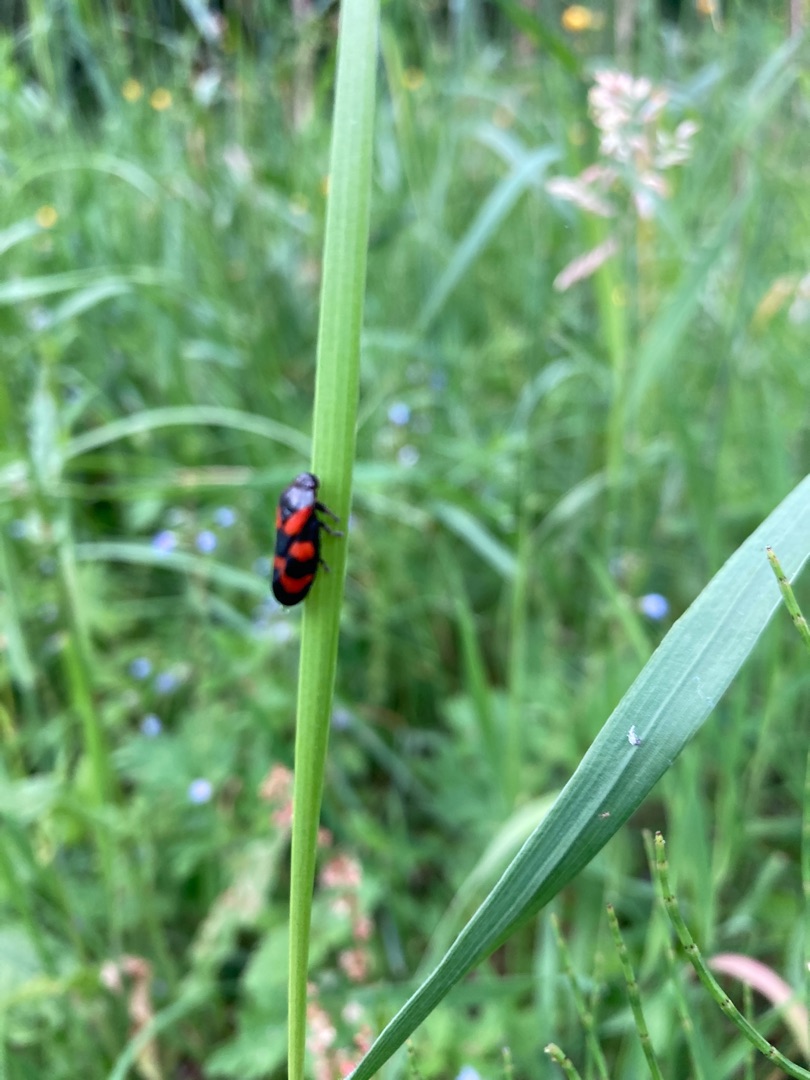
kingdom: Animalia
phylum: Arthropoda
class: Insecta
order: Hemiptera
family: Cercopidae
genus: Cercopis
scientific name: Cercopis vulnerata
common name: Blodcikade
